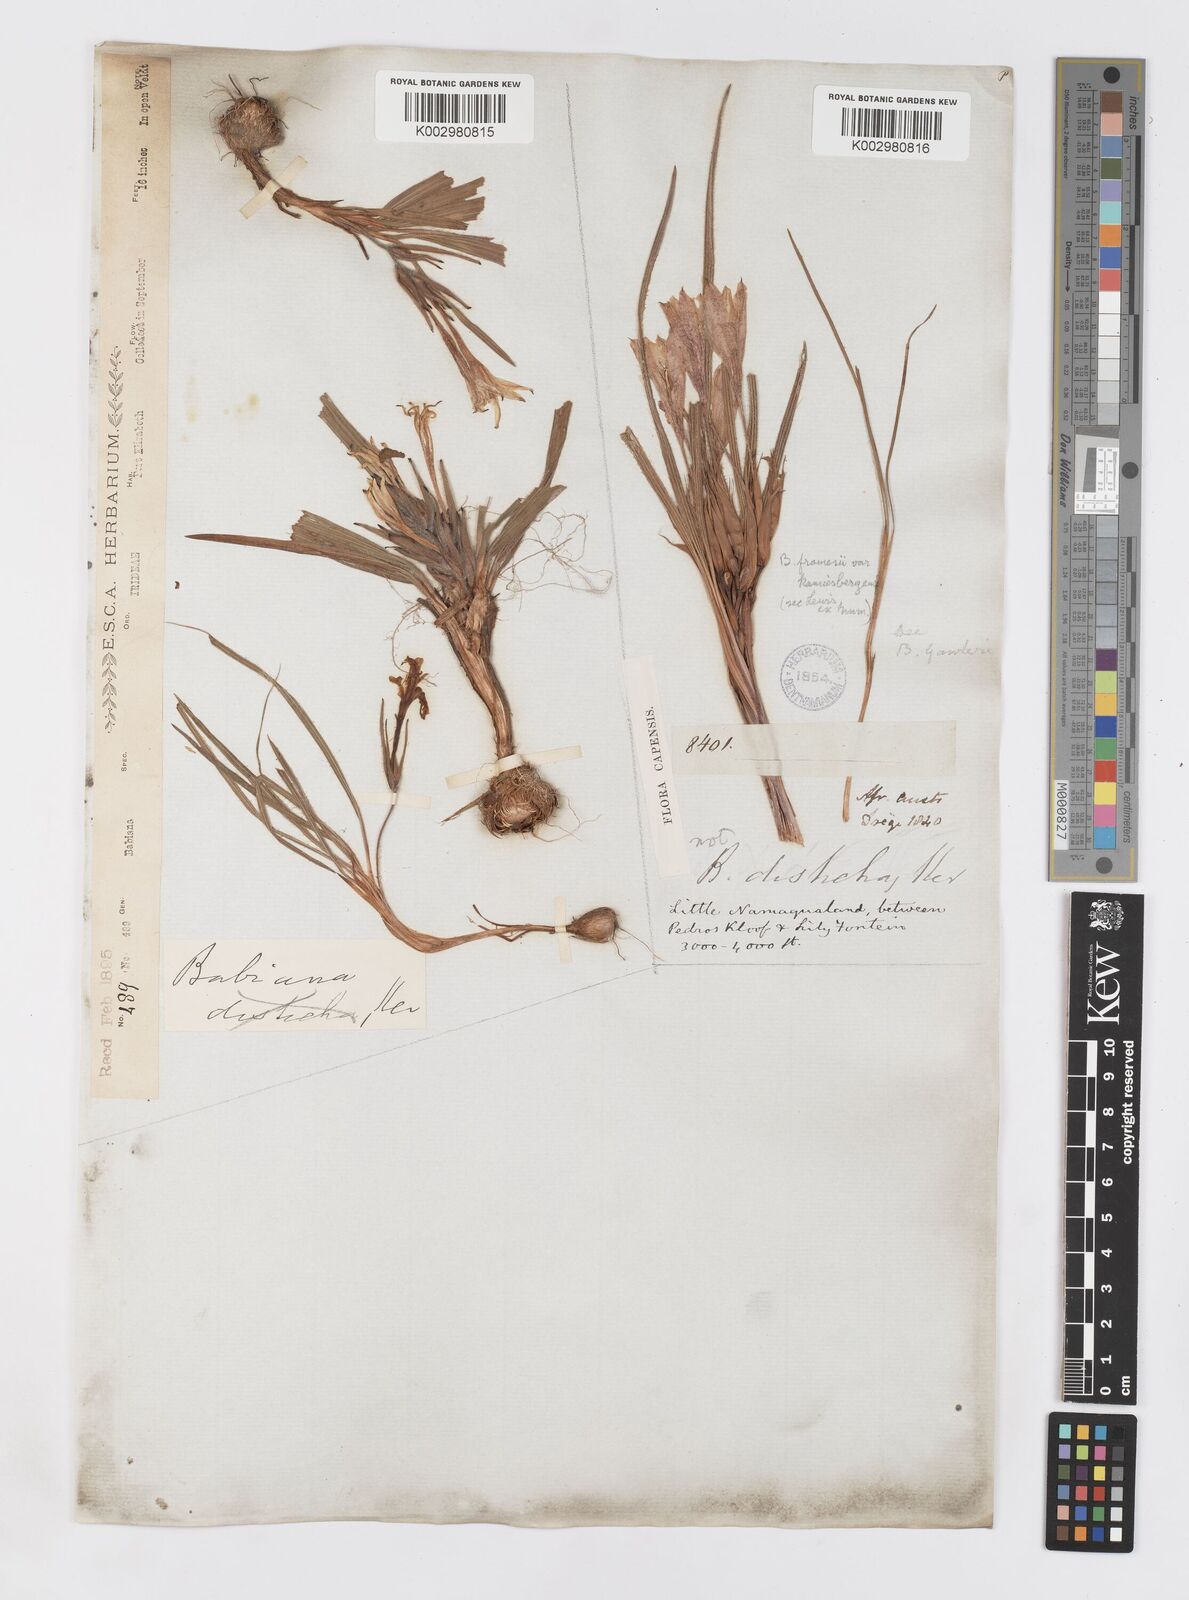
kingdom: Plantae
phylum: Tracheophyta
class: Liliopsida
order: Asparagales
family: Iridaceae
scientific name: Iridaceae
